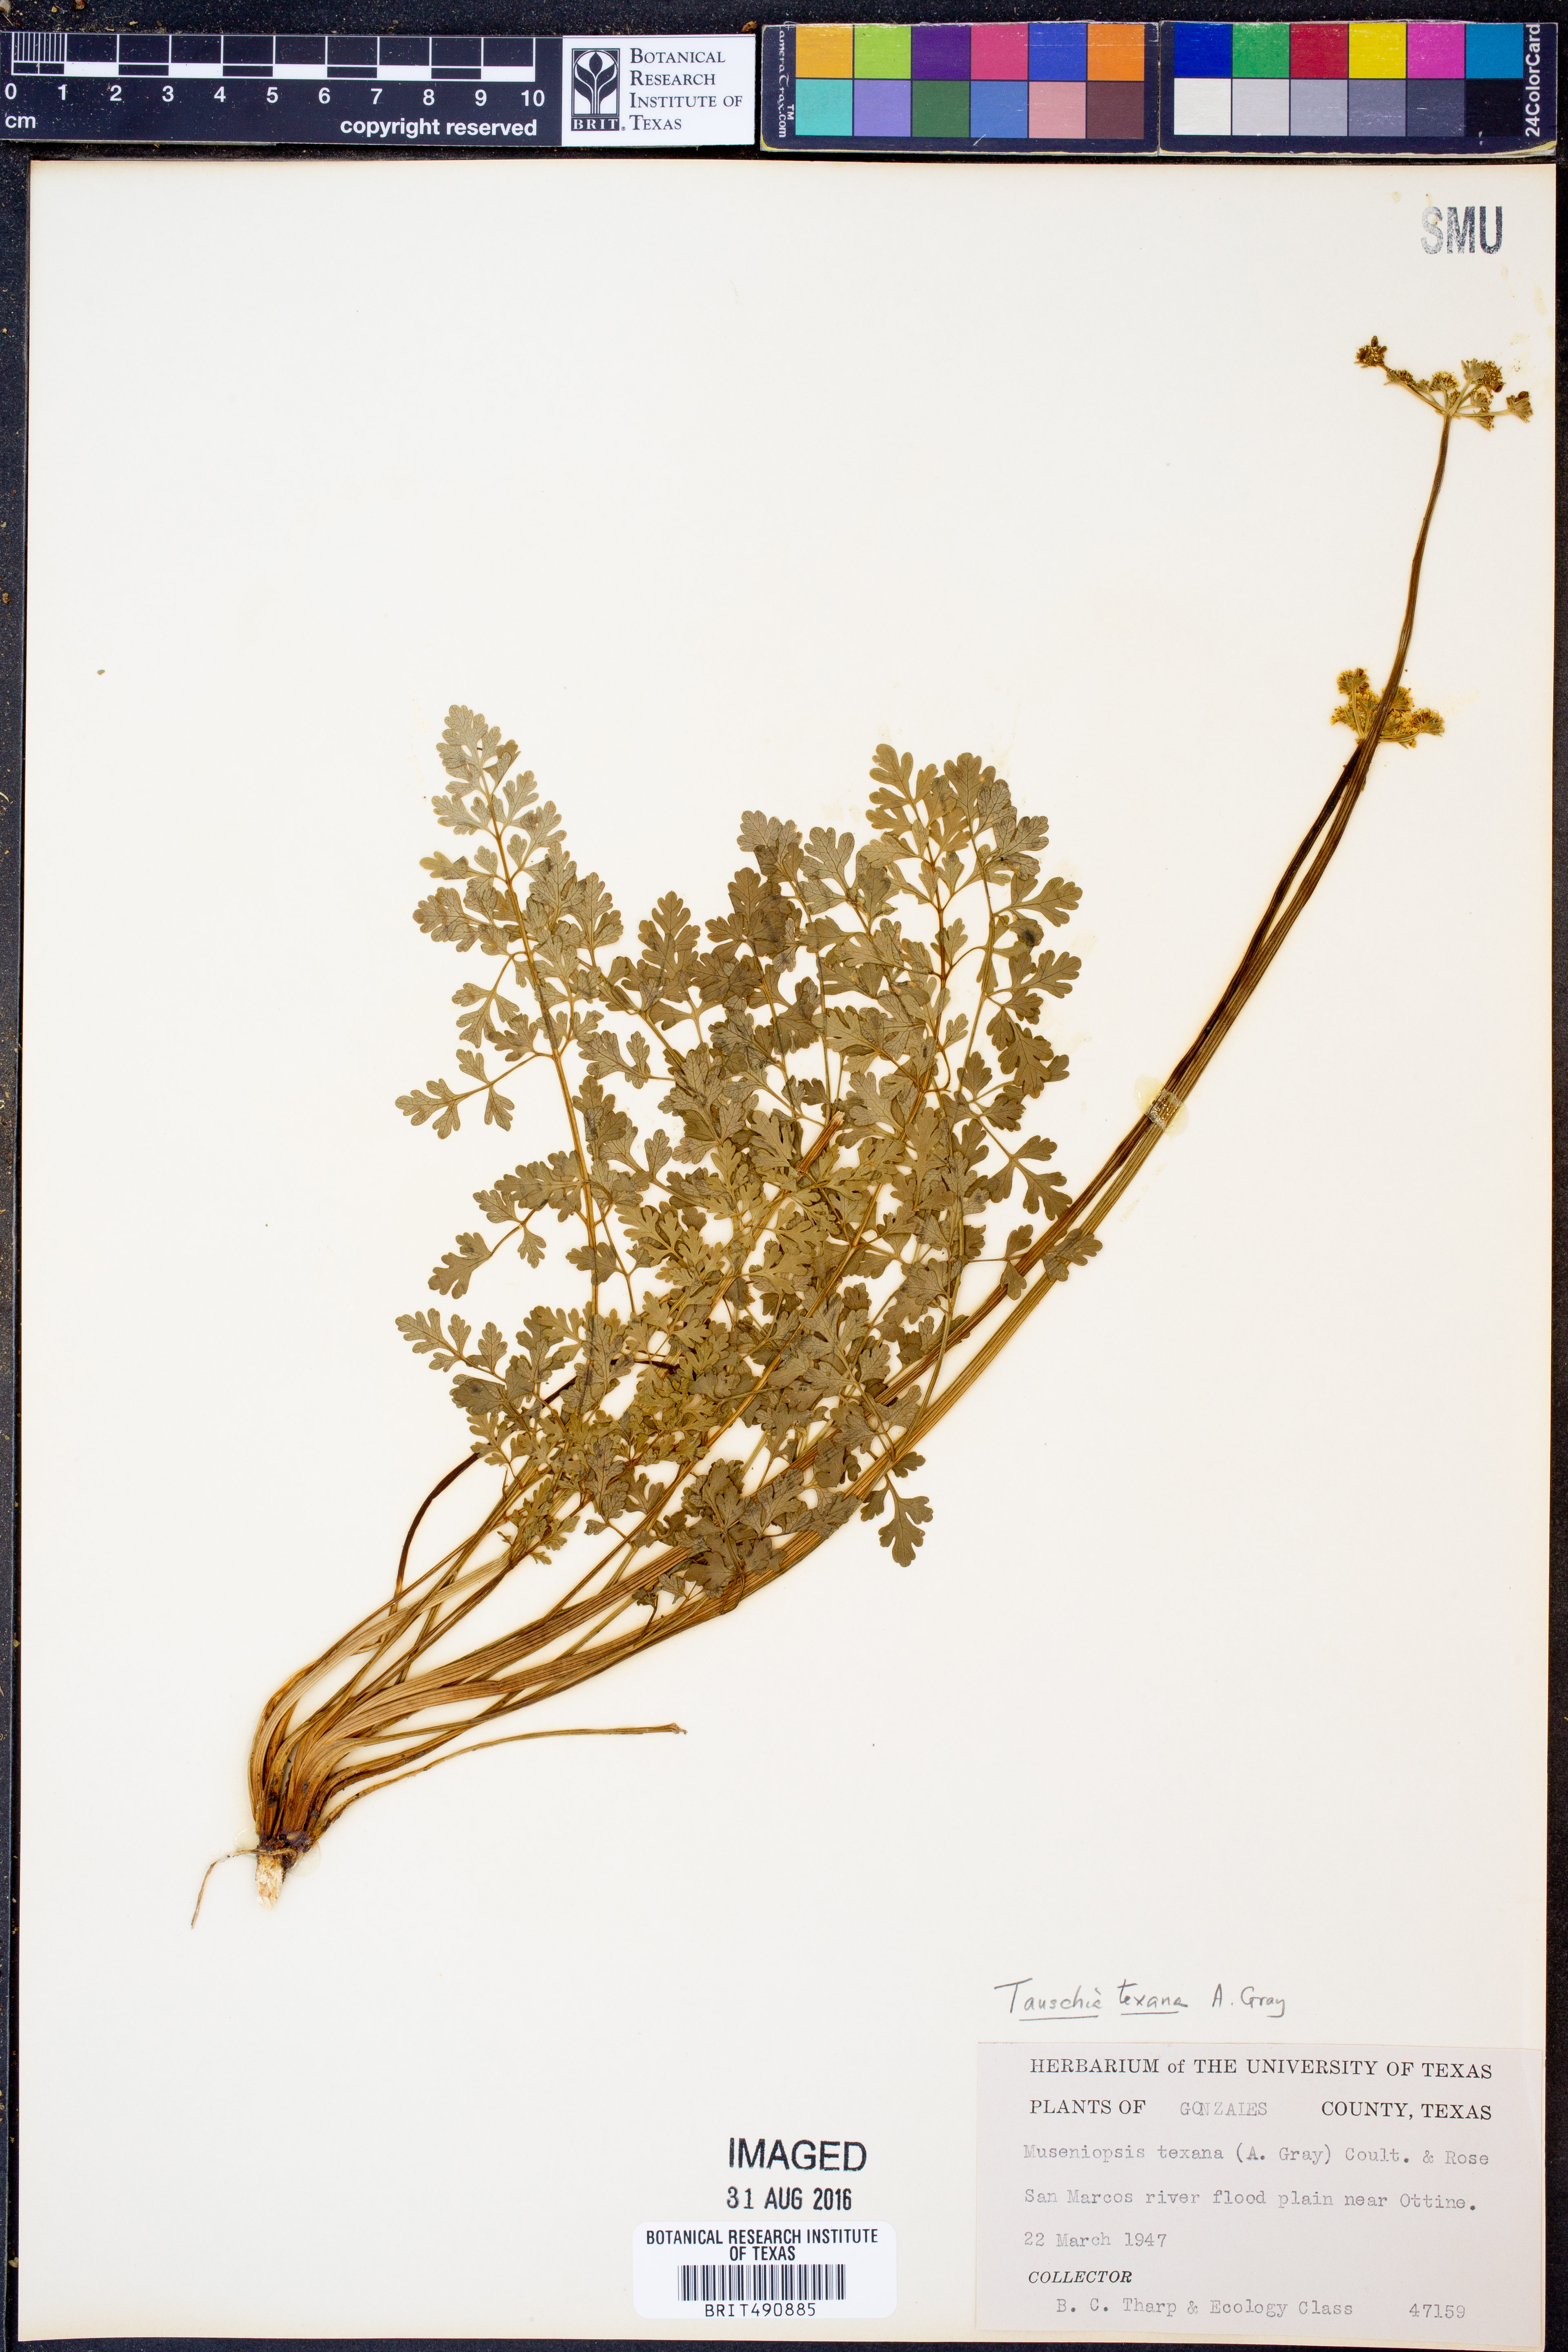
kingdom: Plantae
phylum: Tracheophyta
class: Magnoliopsida
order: Apiales
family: Apiaceae
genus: Tauschia
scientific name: Tauschia texana
